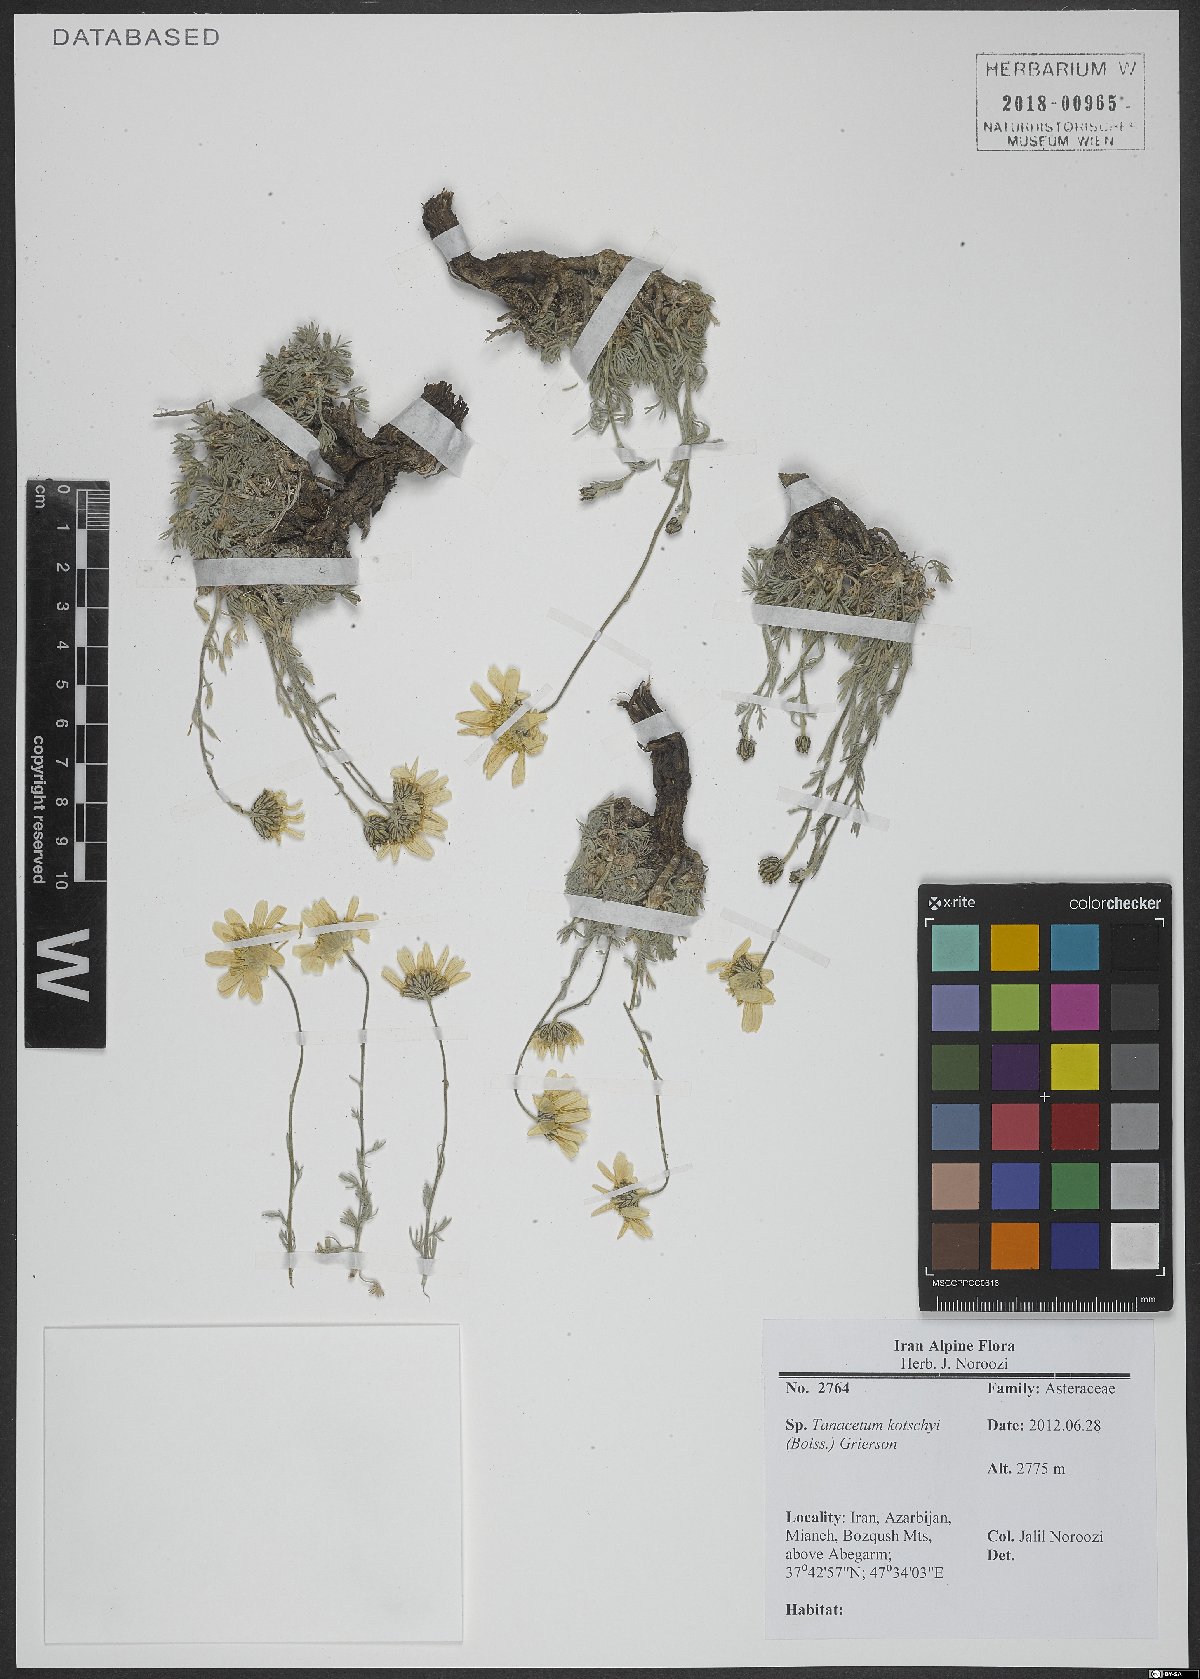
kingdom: Plantae
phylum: Tracheophyta
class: Magnoliopsida
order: Asterales
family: Asteraceae
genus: Tanacetum
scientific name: Tanacetum kotschyi
